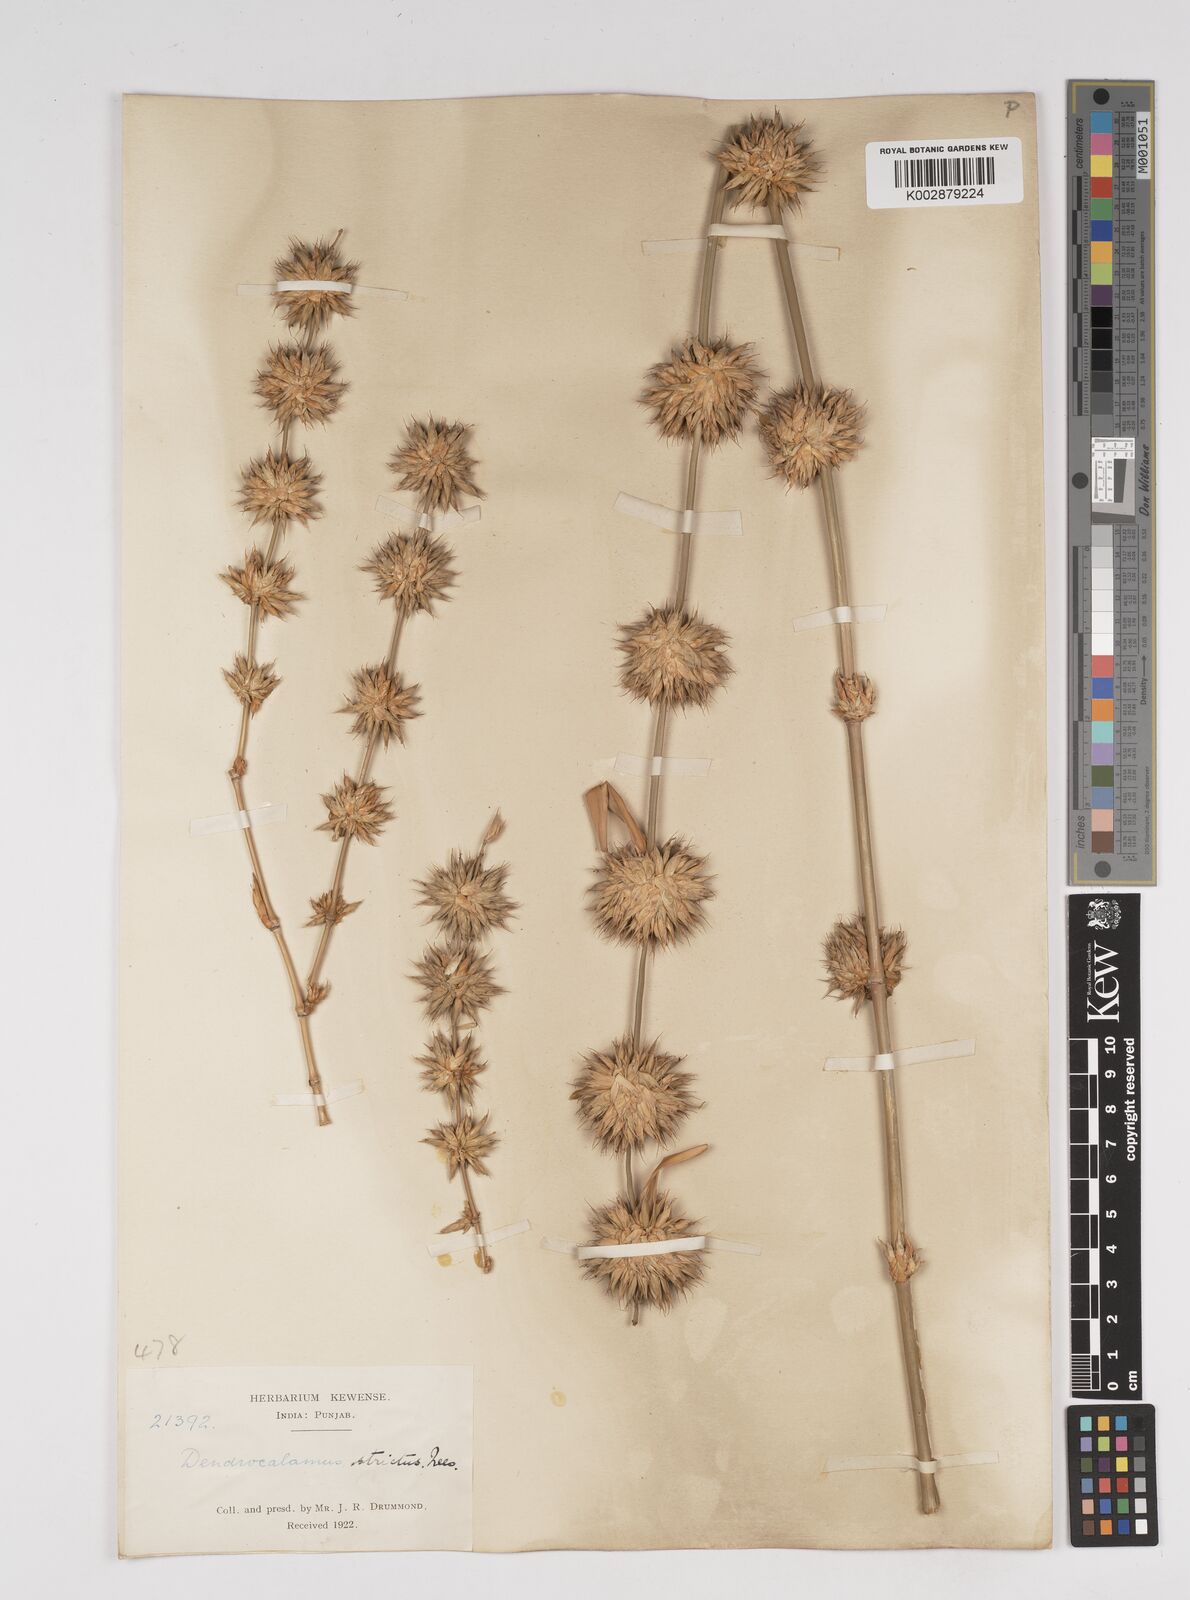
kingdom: Plantae
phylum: Tracheophyta
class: Liliopsida
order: Poales
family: Poaceae
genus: Dendrocalamus
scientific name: Dendrocalamus strictus
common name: Male bamboo
